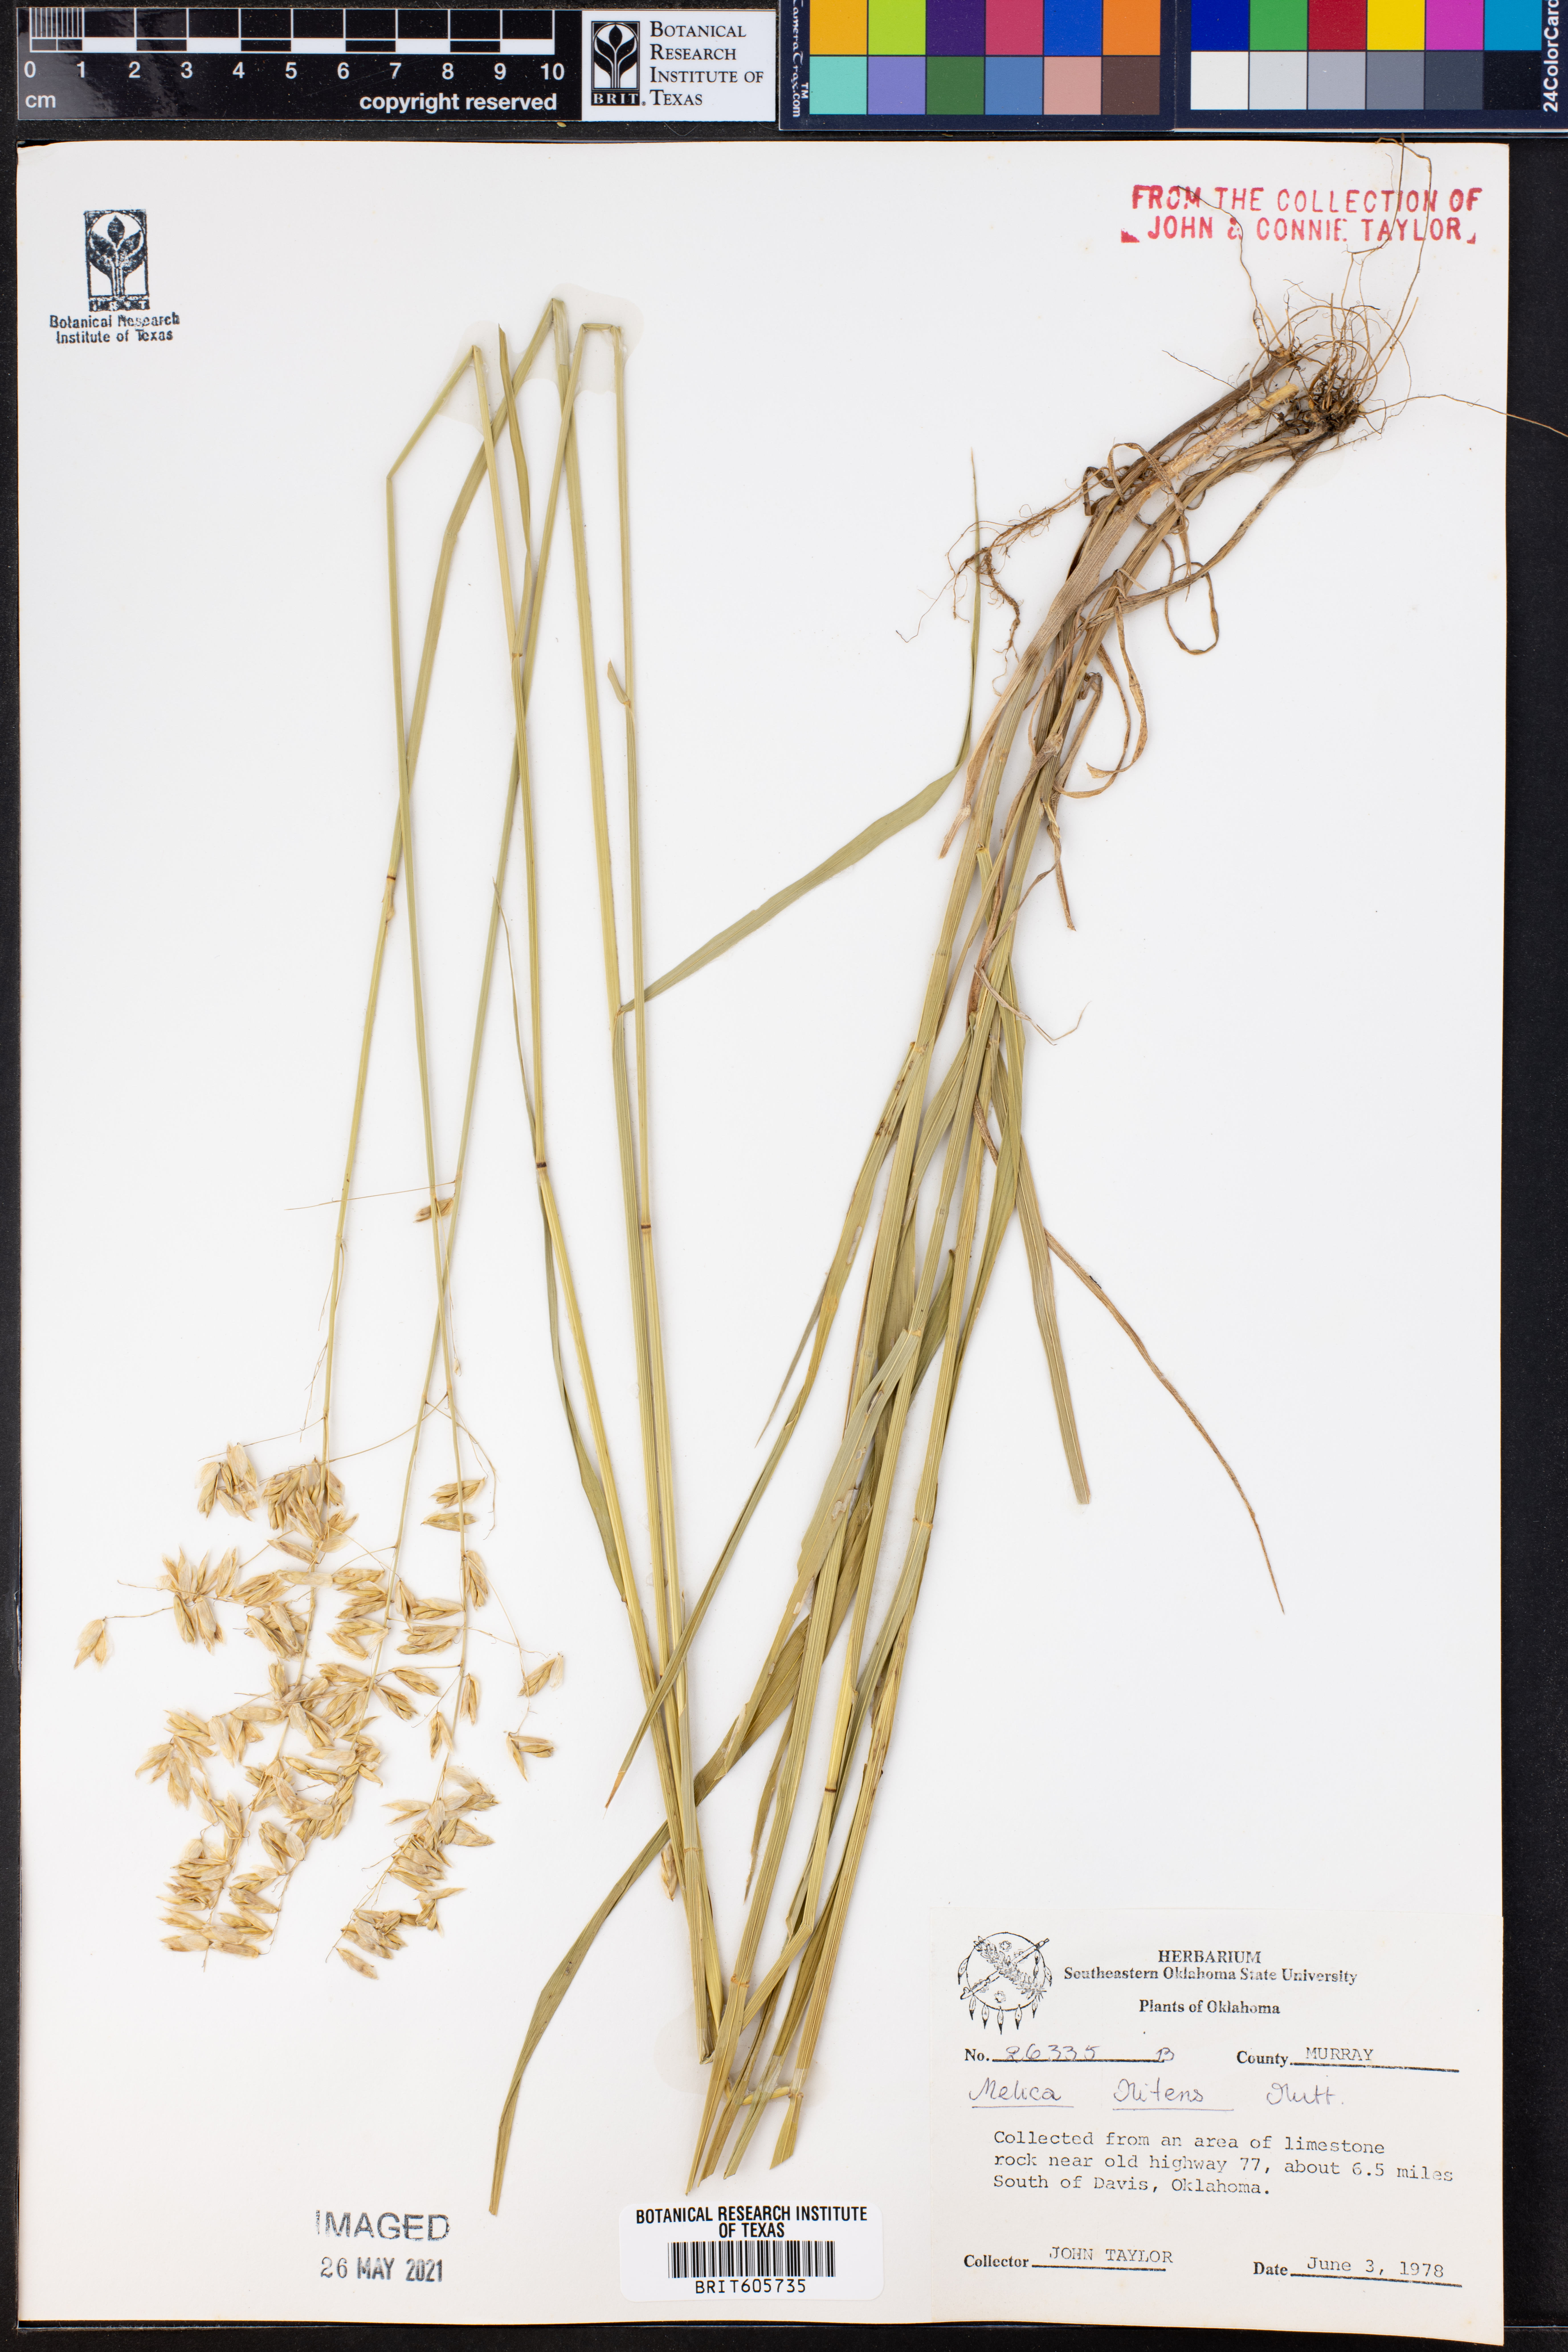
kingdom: Plantae
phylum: Tracheophyta
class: Liliopsida
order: Poales
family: Poaceae
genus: Melica
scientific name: Melica nitens
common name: Three-flower melic
